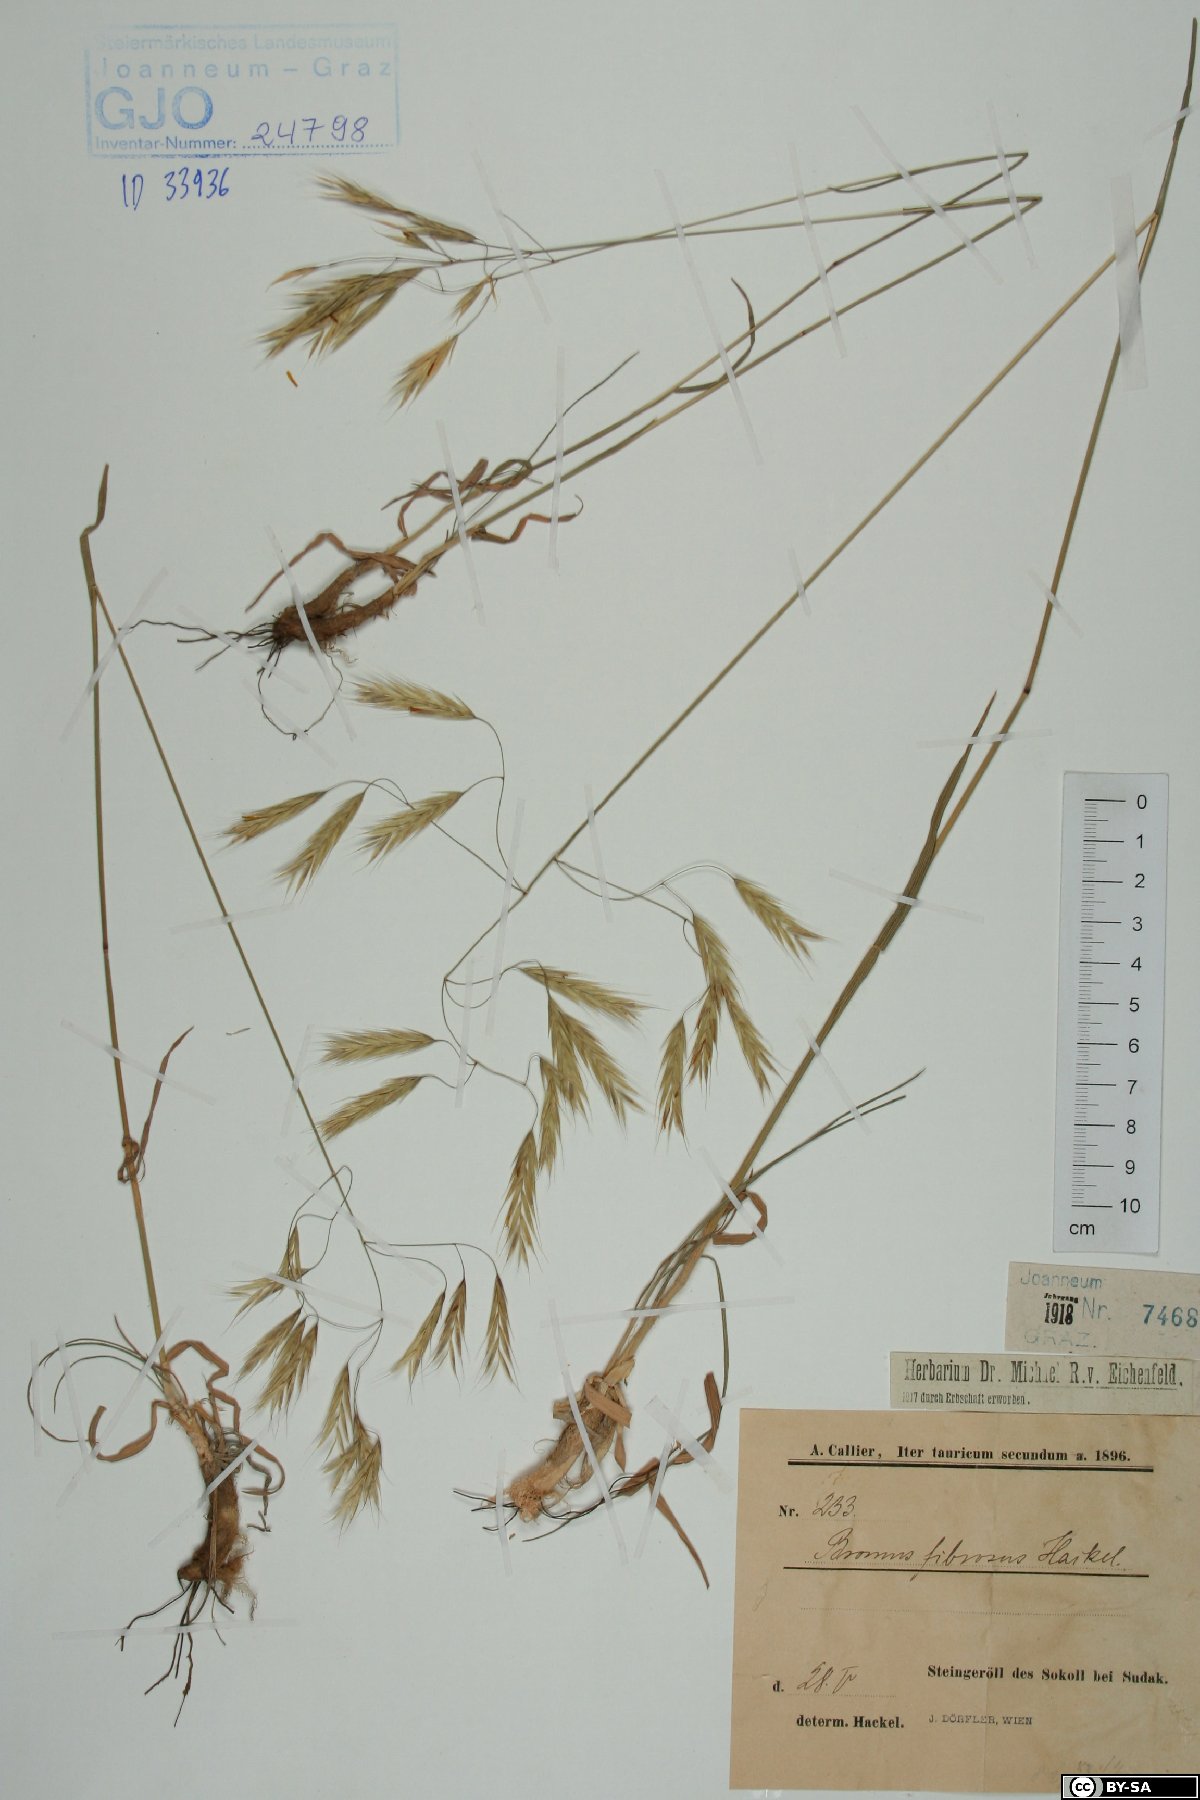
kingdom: Plantae
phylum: Tracheophyta
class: Liliopsida
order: Poales
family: Poaceae
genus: Bromus
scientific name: Bromus riparius
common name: Meadow brome
